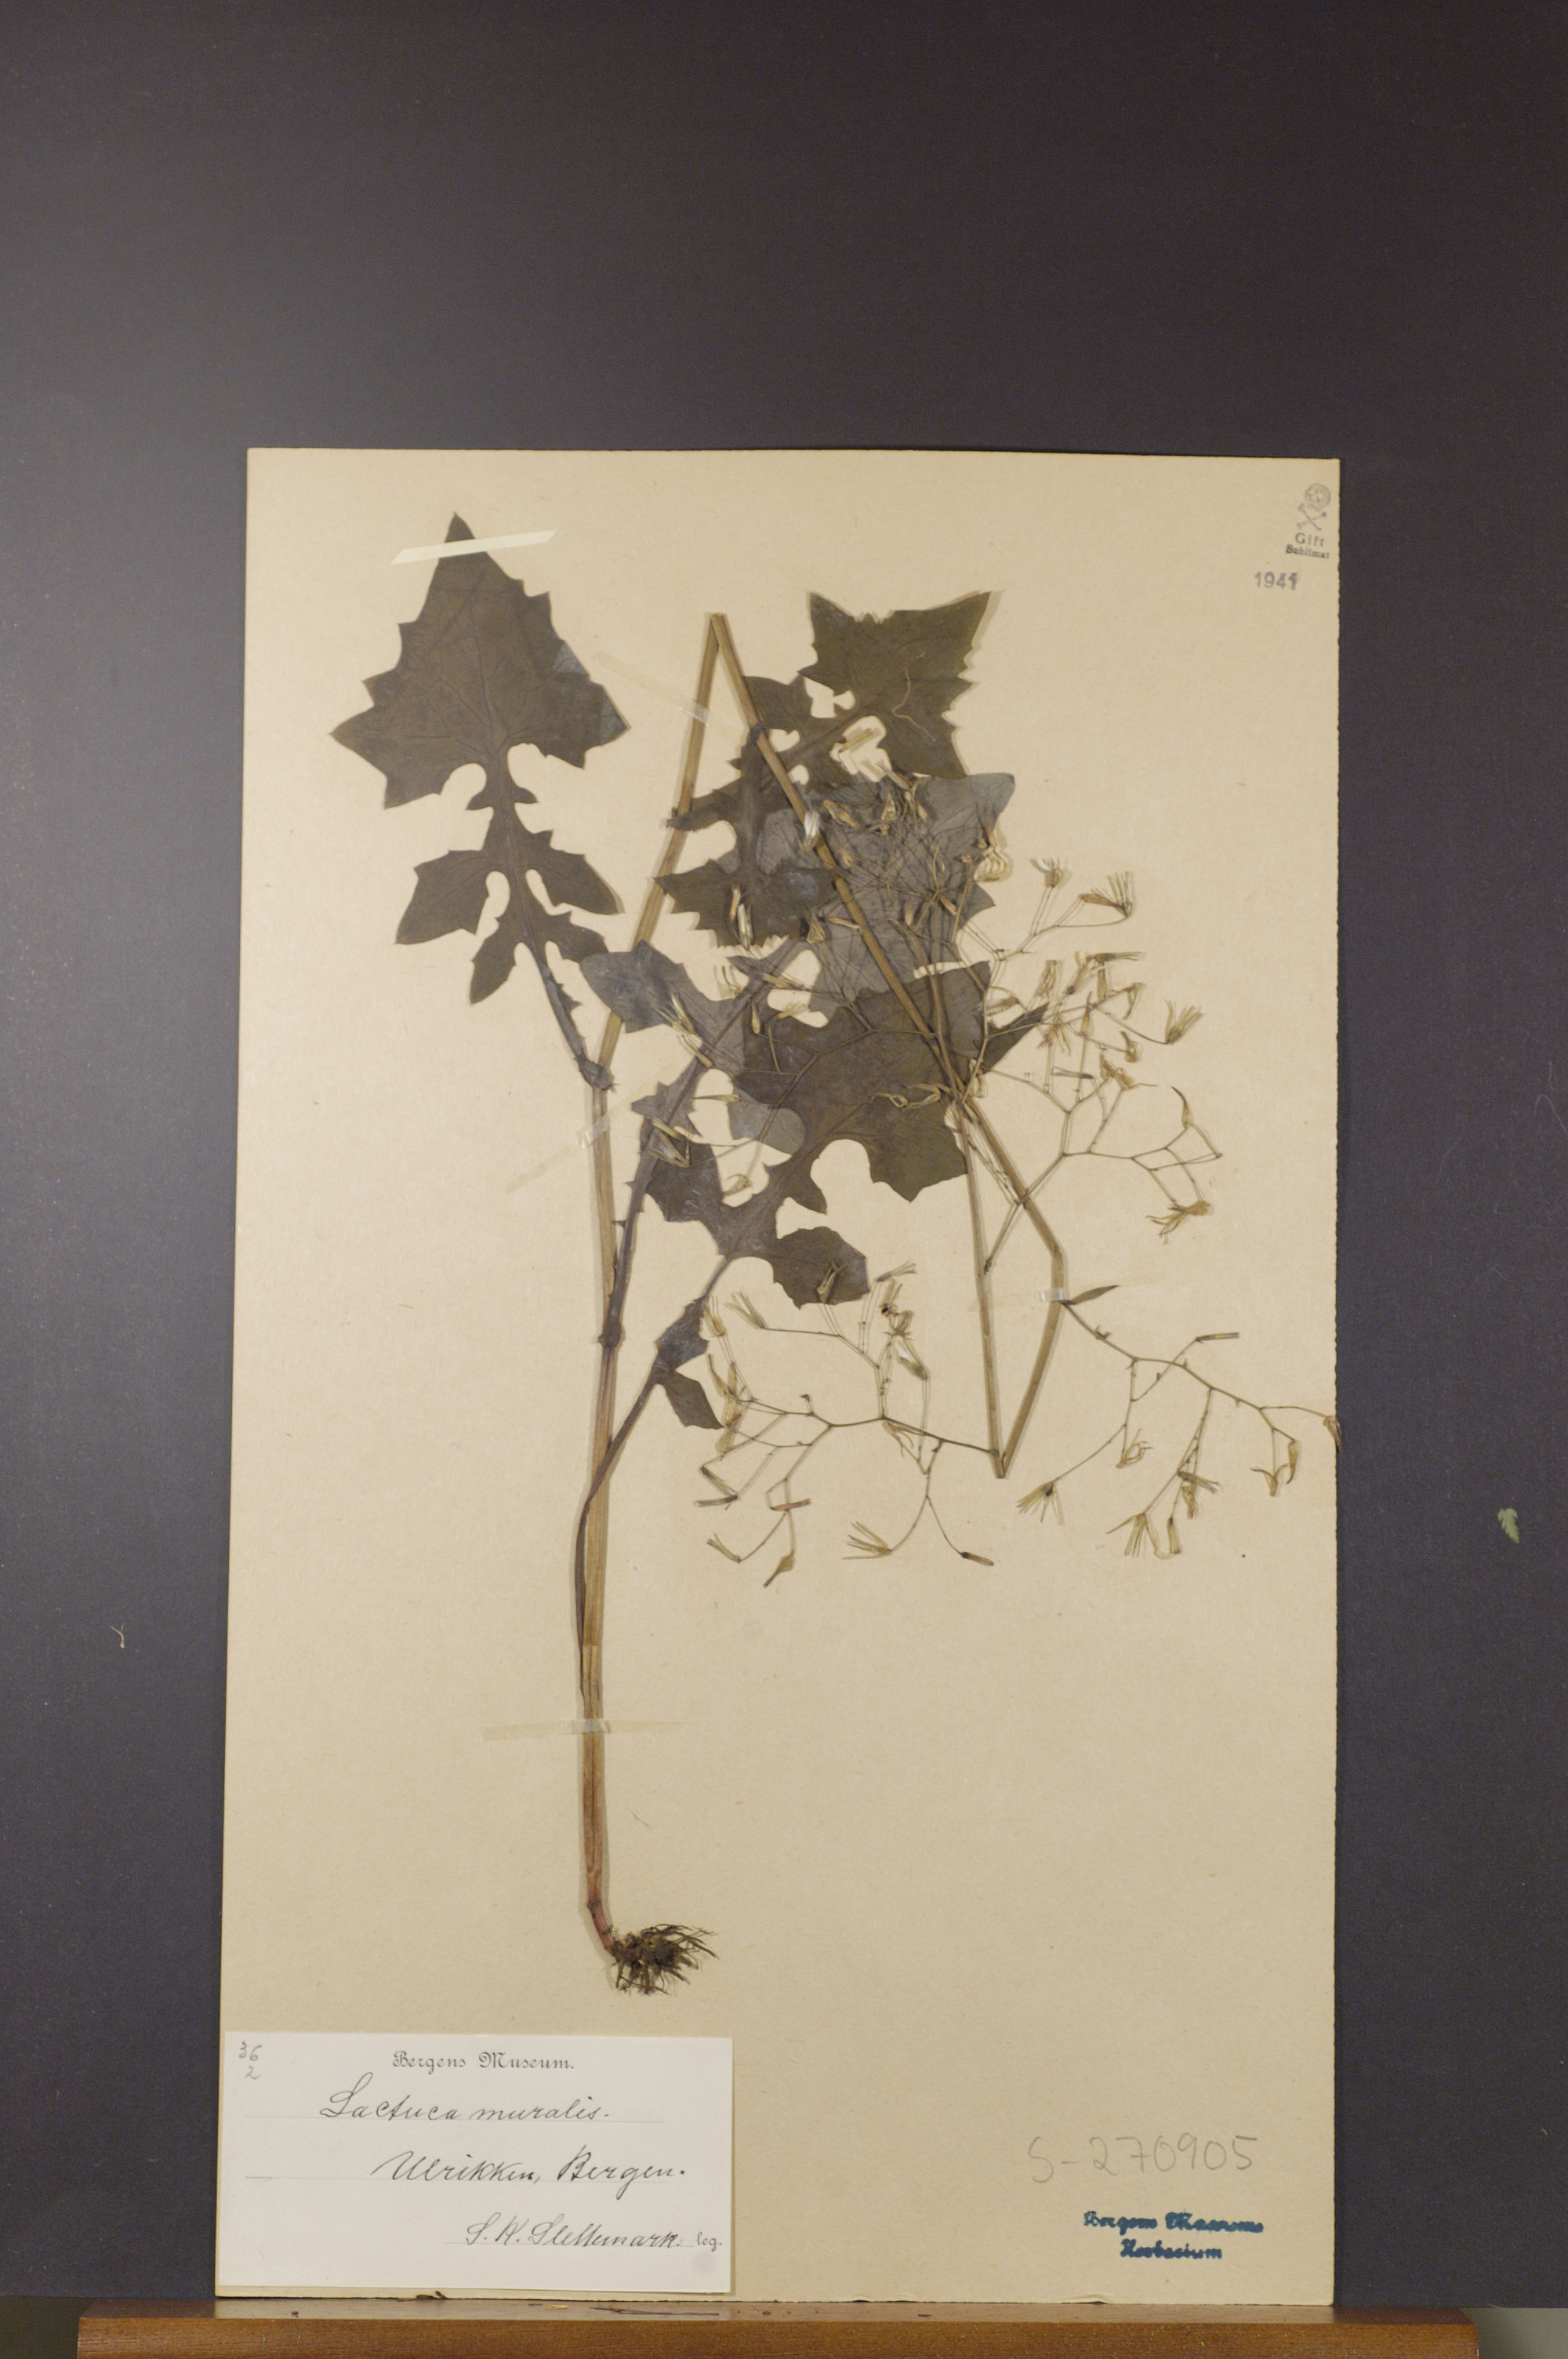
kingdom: Plantae
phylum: Tracheophyta
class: Magnoliopsida
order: Asterales
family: Asteraceae
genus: Mycelis
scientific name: Mycelis muralis
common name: Wall lettuce
